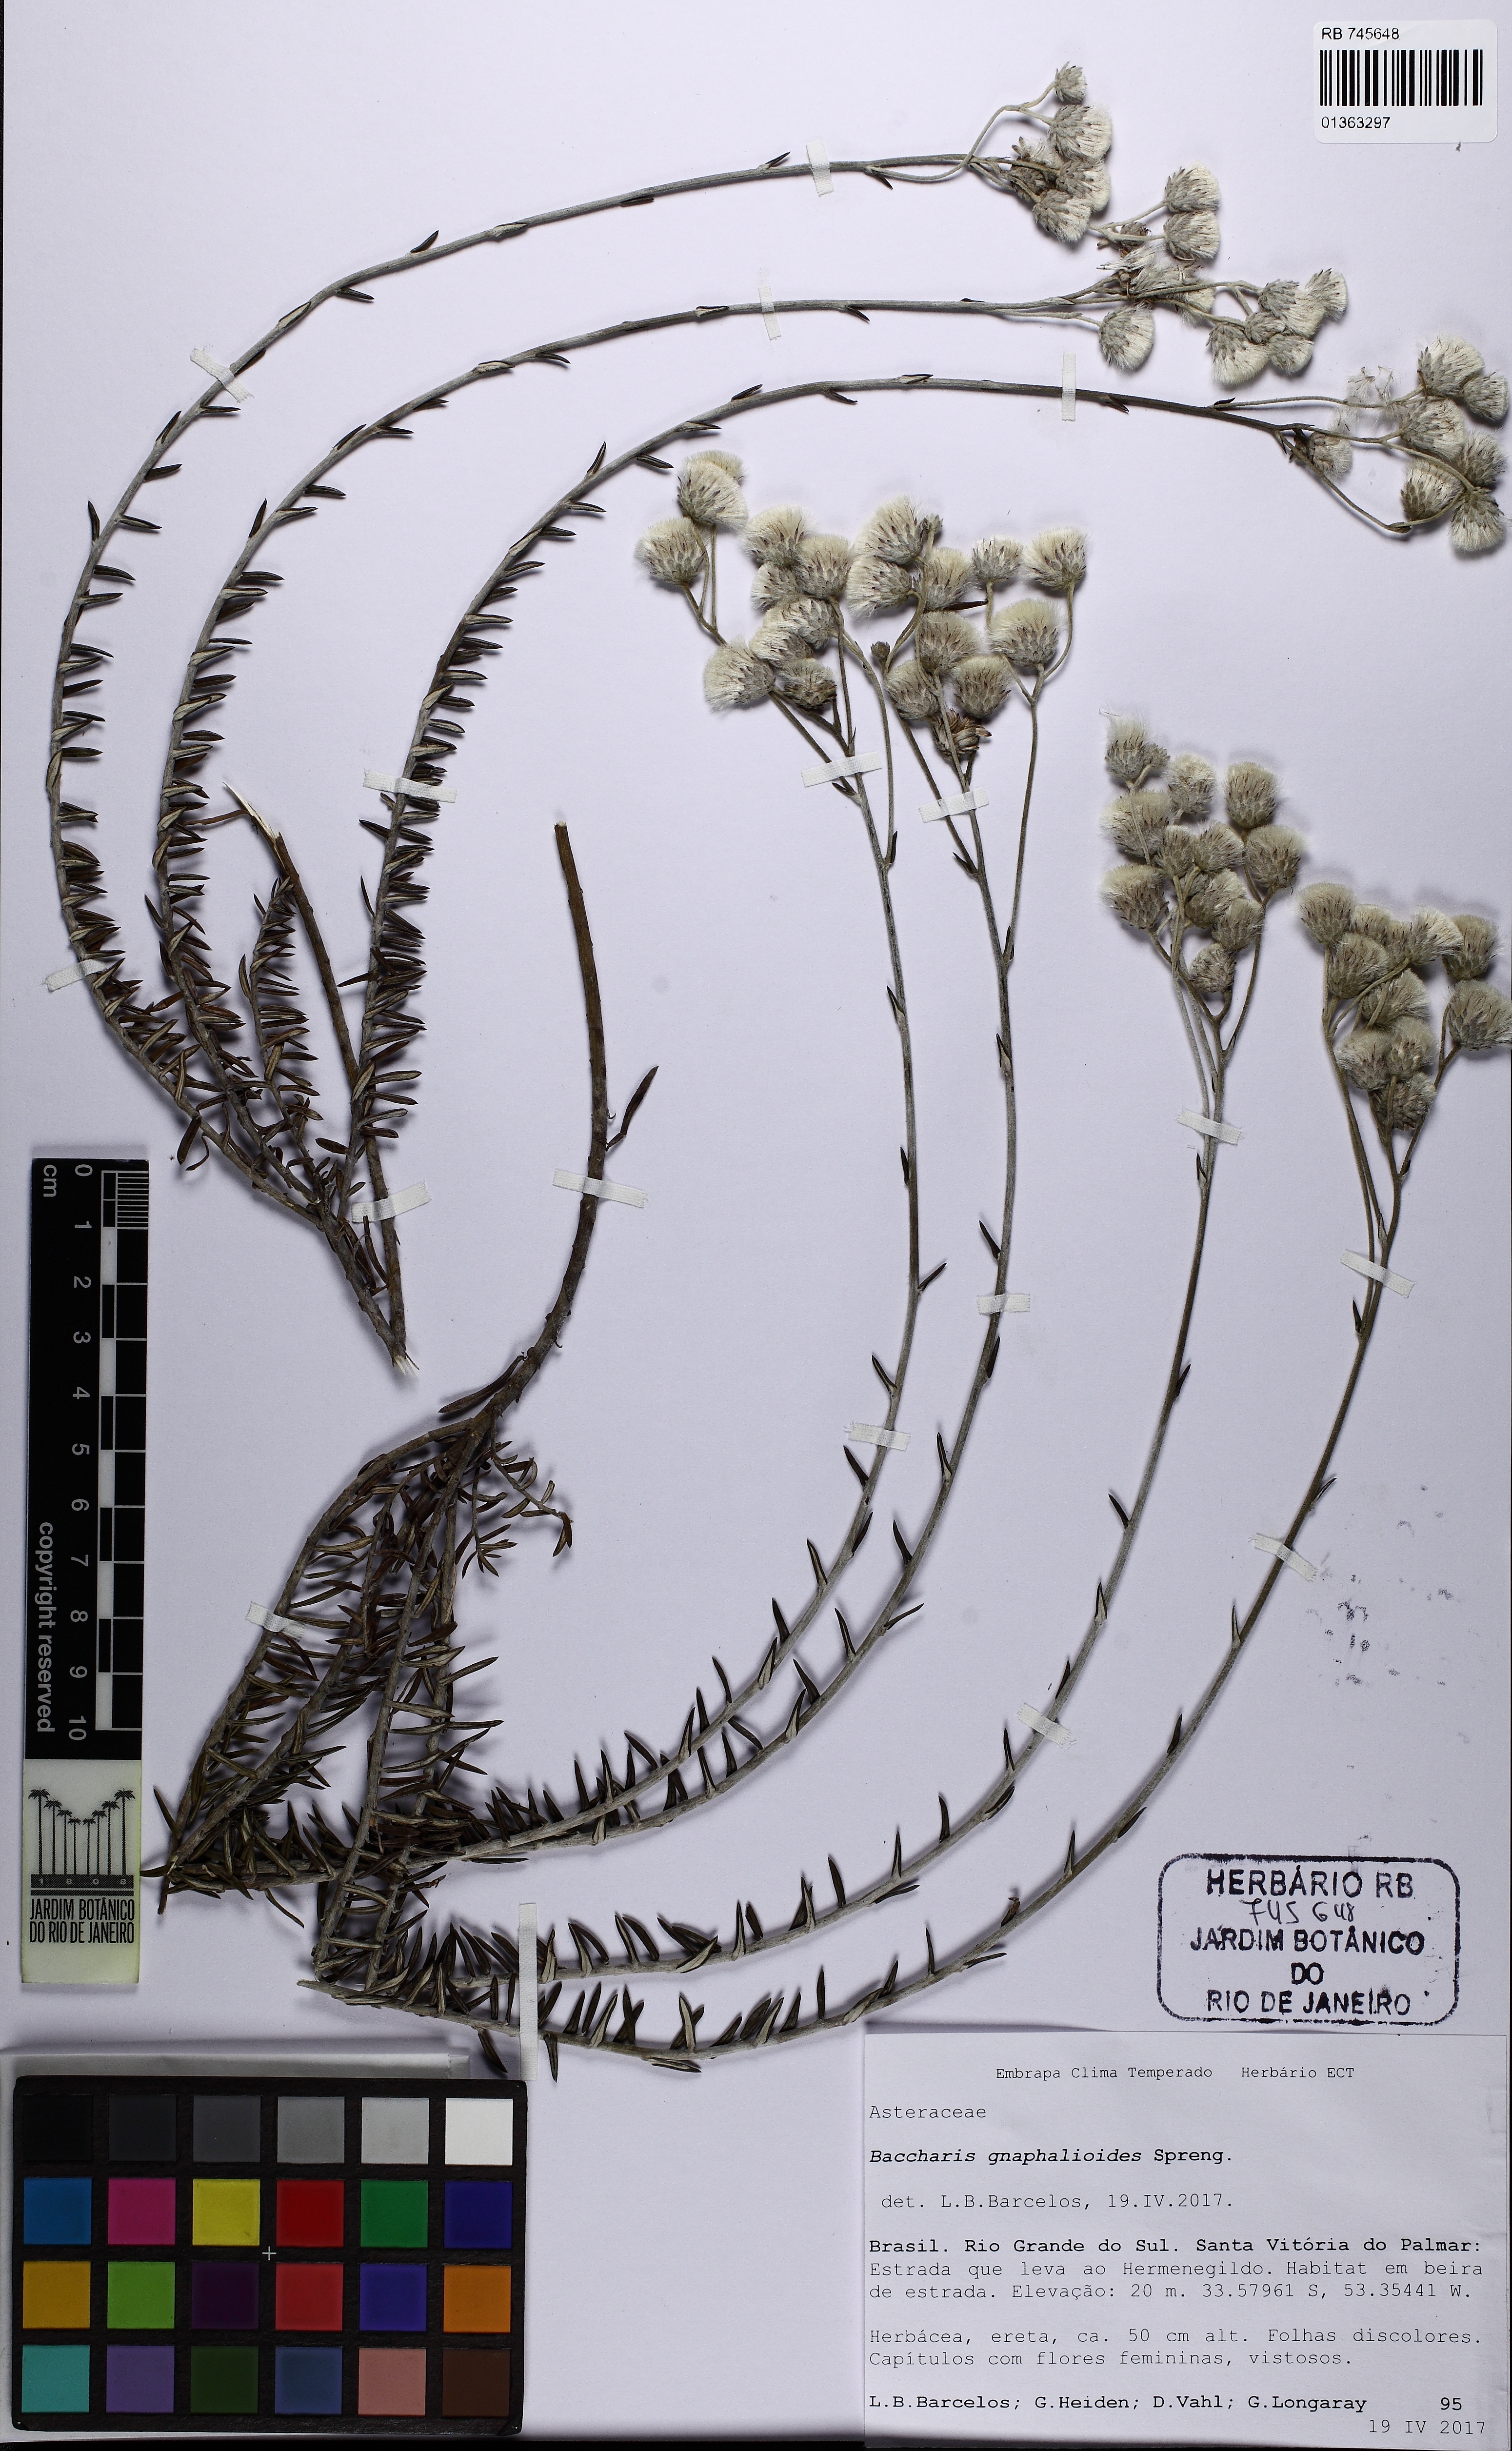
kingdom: Plantae
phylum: Tracheophyta
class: Magnoliopsida
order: Asterales
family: Asteraceae
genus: Lucilia
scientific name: Lucilia acutifolia
